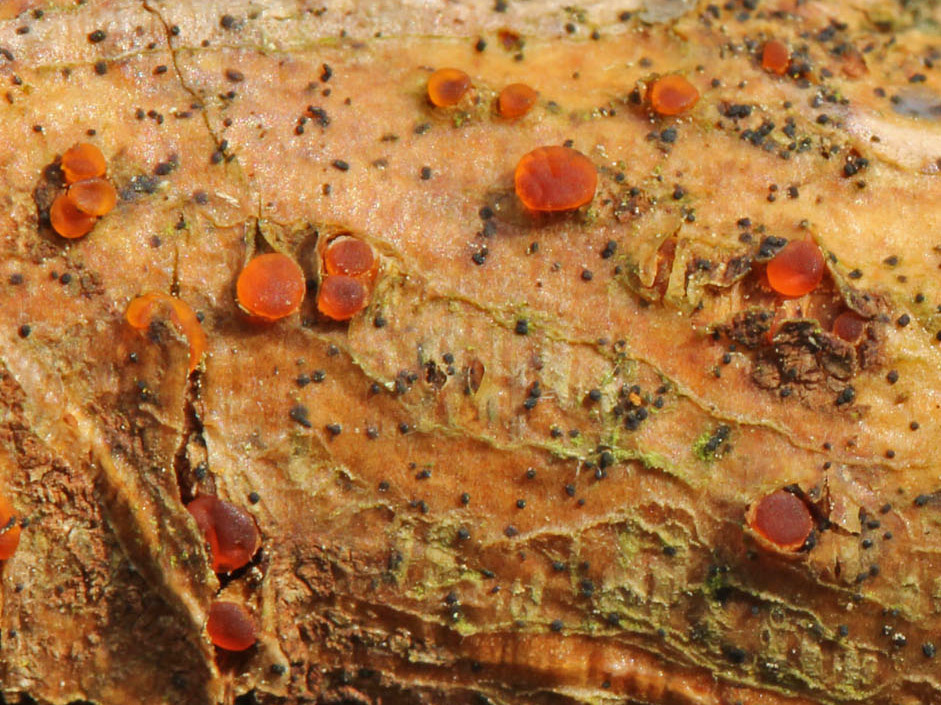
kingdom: Fungi
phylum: Basidiomycota
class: Dacrymycetes
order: Dacrymycetales
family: Dacrymycetaceae
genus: Dacrymyces
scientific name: Dacrymyces
